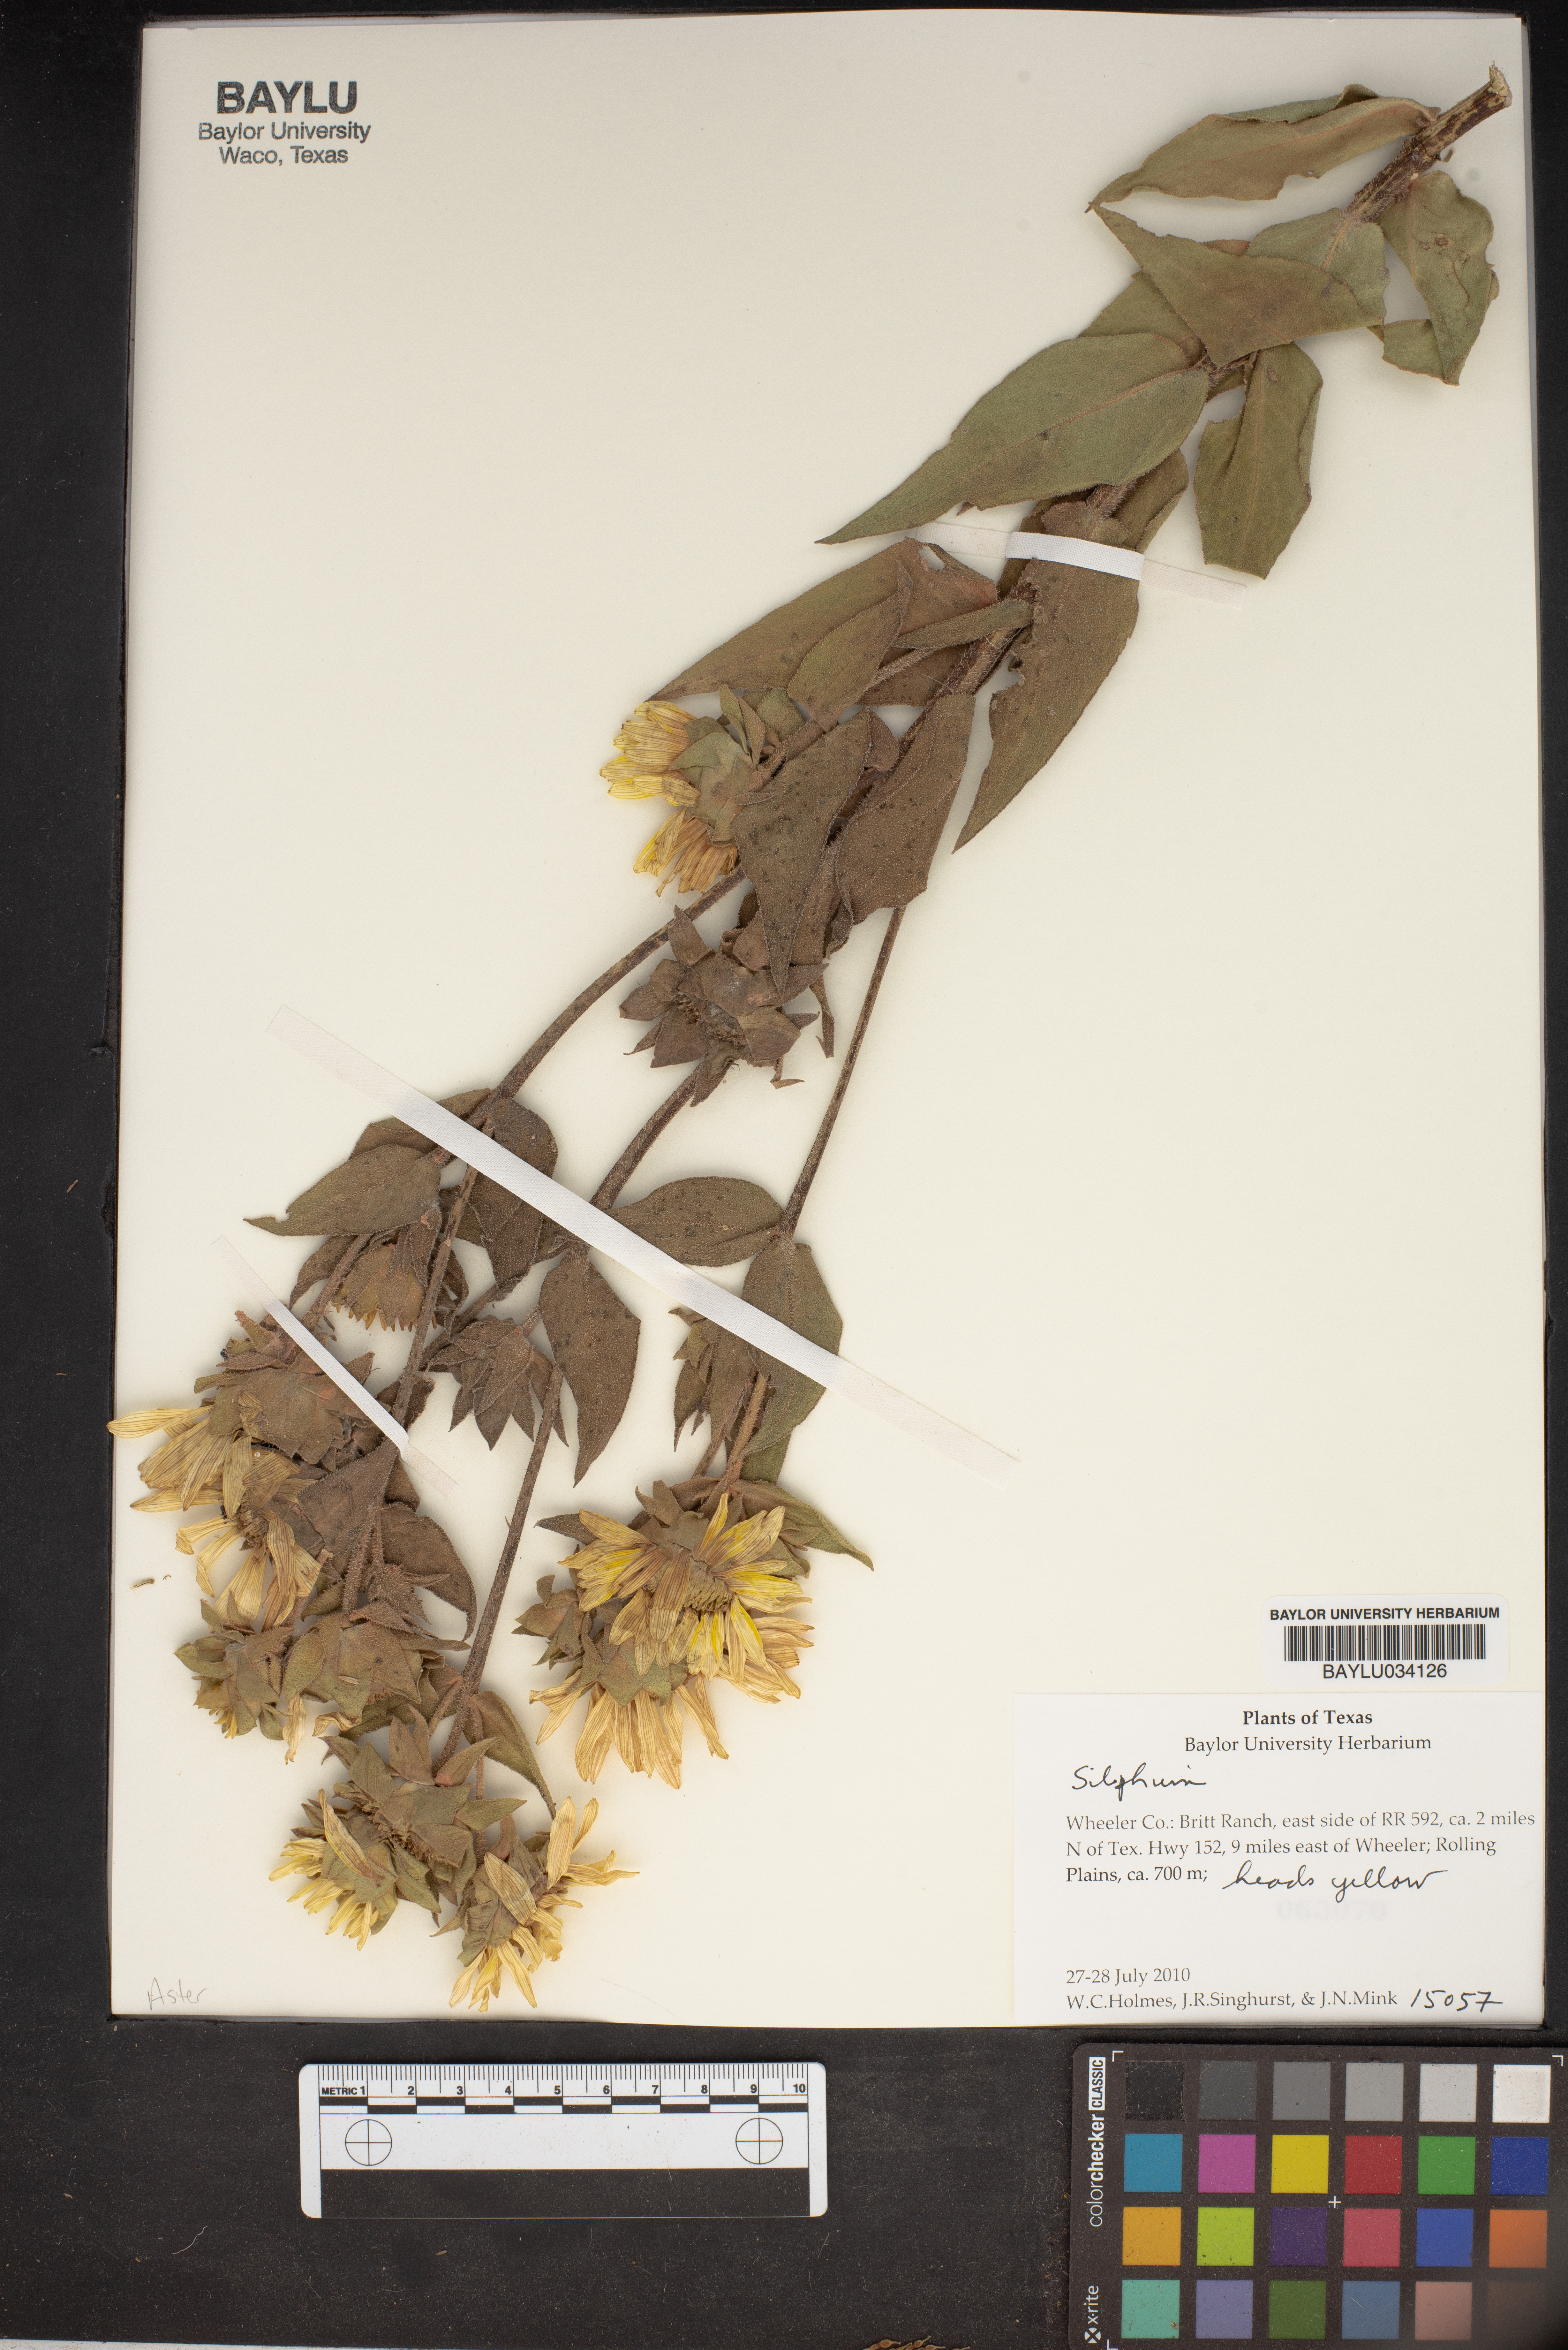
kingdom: Plantae
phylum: Tracheophyta
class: Magnoliopsida
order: Asterales
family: Asteraceae
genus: Silphium
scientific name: Silphium
